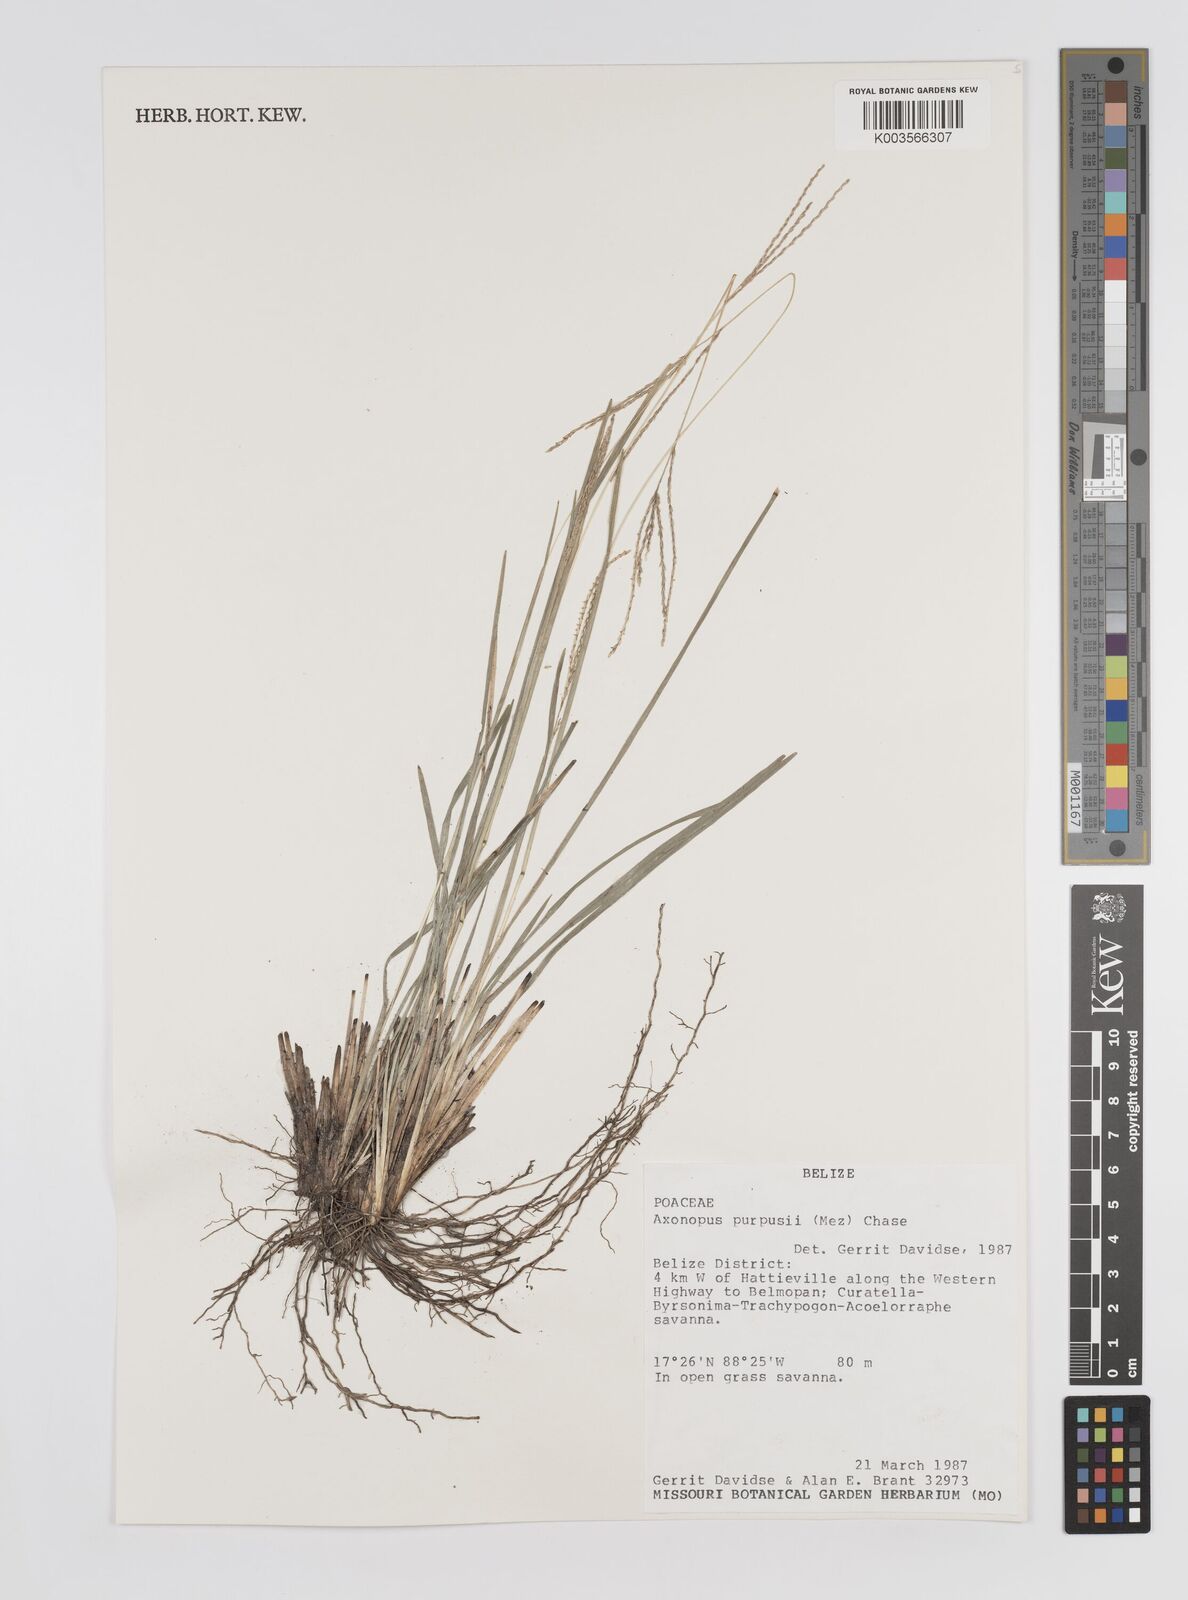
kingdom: Plantae
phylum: Tracheophyta
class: Liliopsida
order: Poales
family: Poaceae
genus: Axonopus
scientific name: Axonopus purpusii
